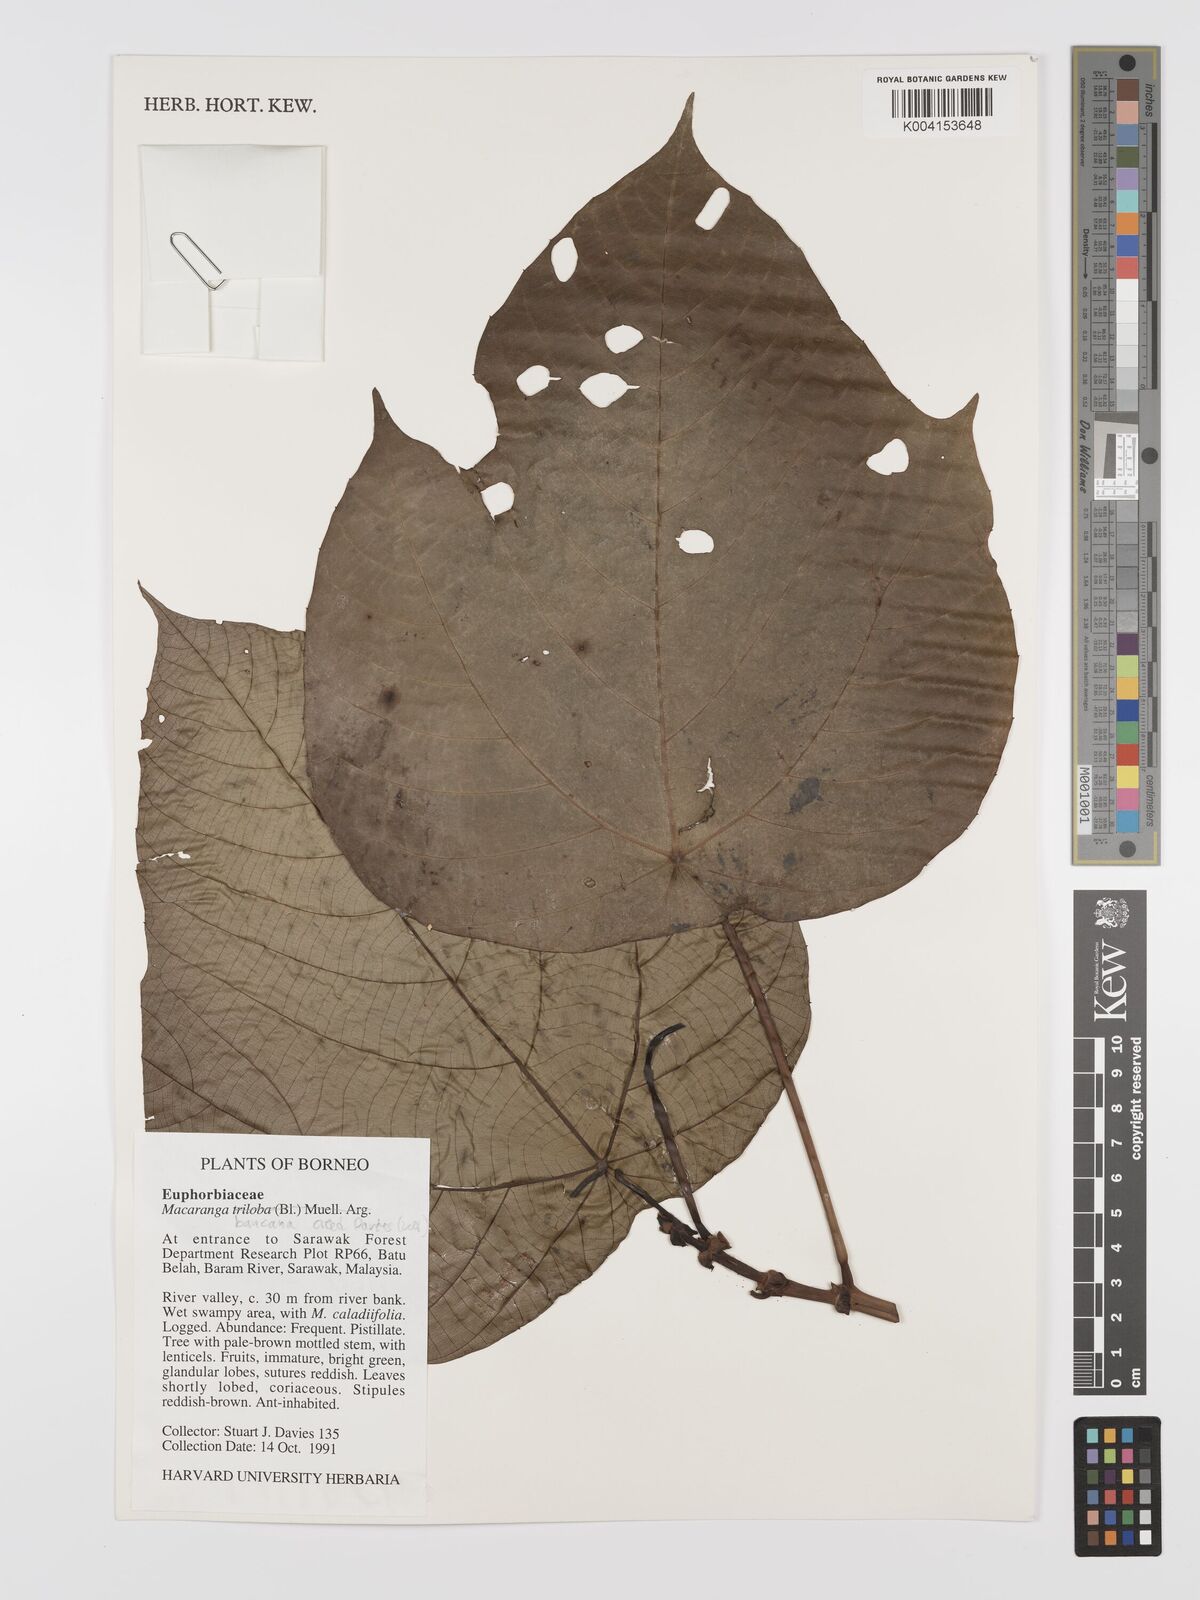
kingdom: Plantae
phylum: Tracheophyta
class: Magnoliopsida
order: Malpighiales
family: Euphorbiaceae
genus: Macaranga
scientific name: Macaranga triloba
